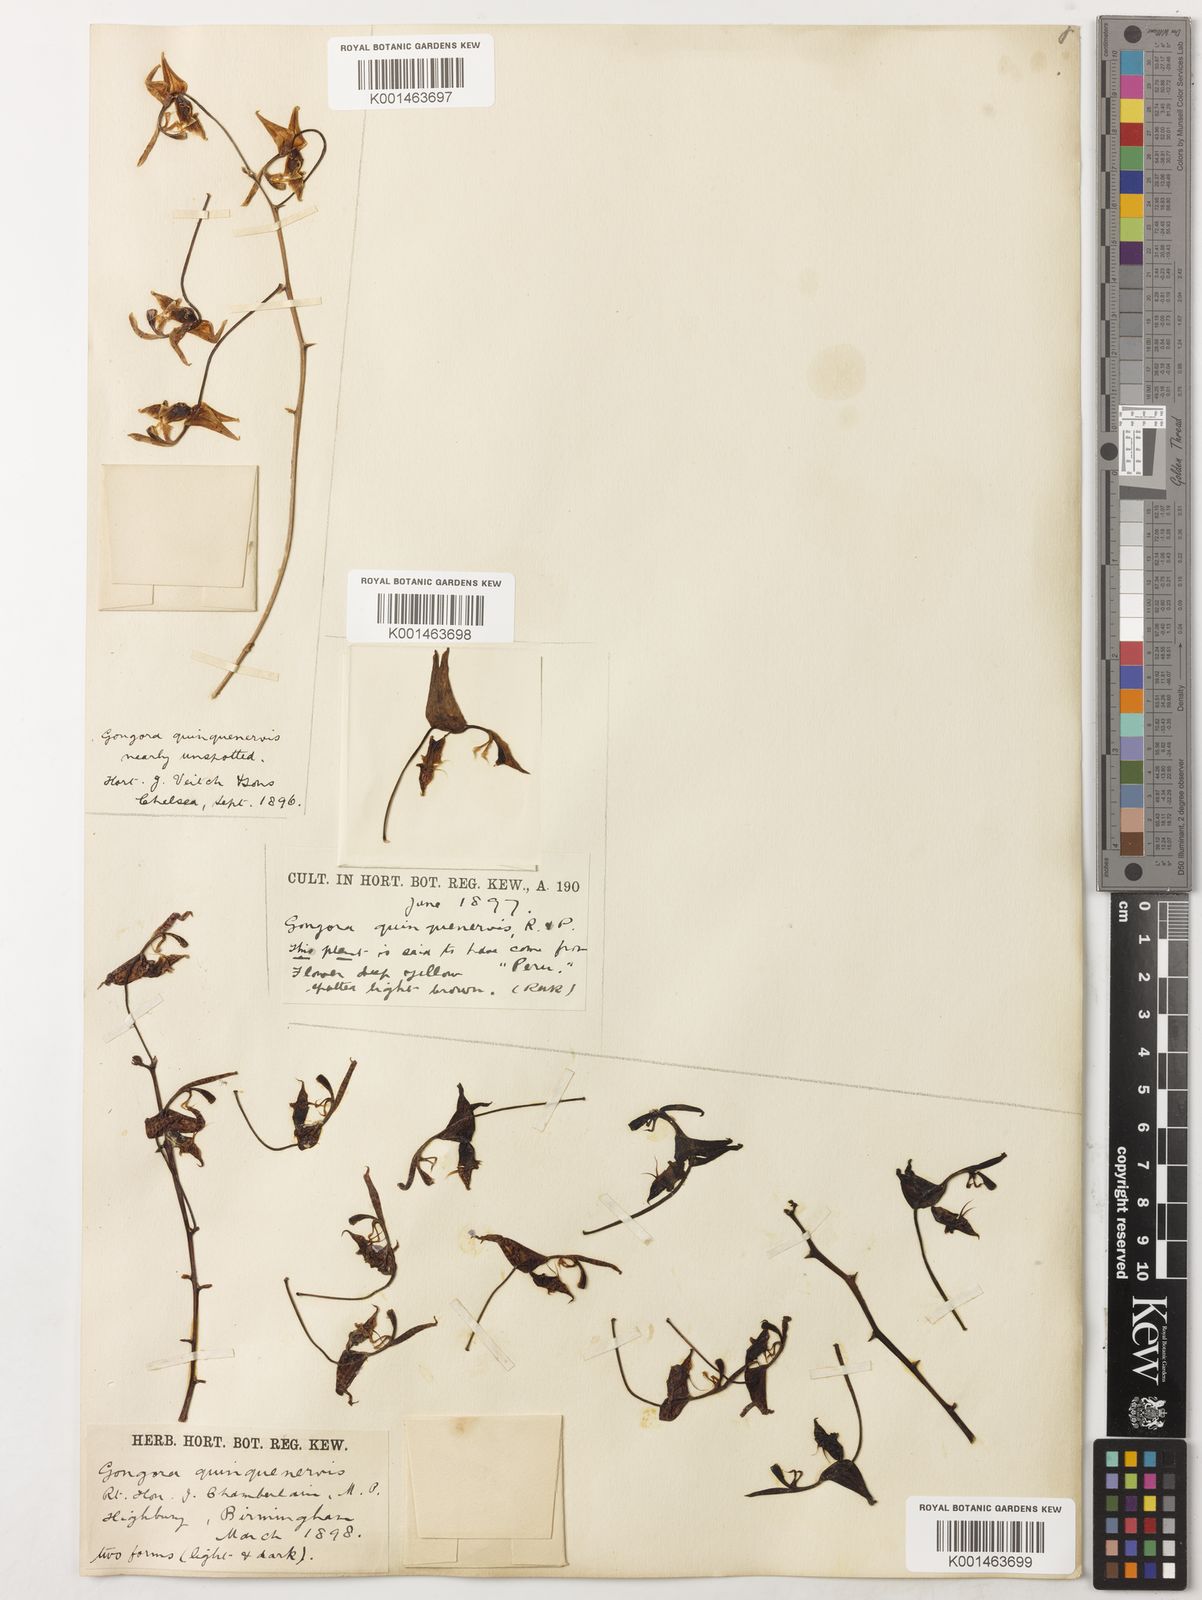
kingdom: Plantae
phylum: Tracheophyta
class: Liliopsida
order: Asparagales
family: Orchidaceae
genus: Gongora
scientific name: Gongora quinquenervis
